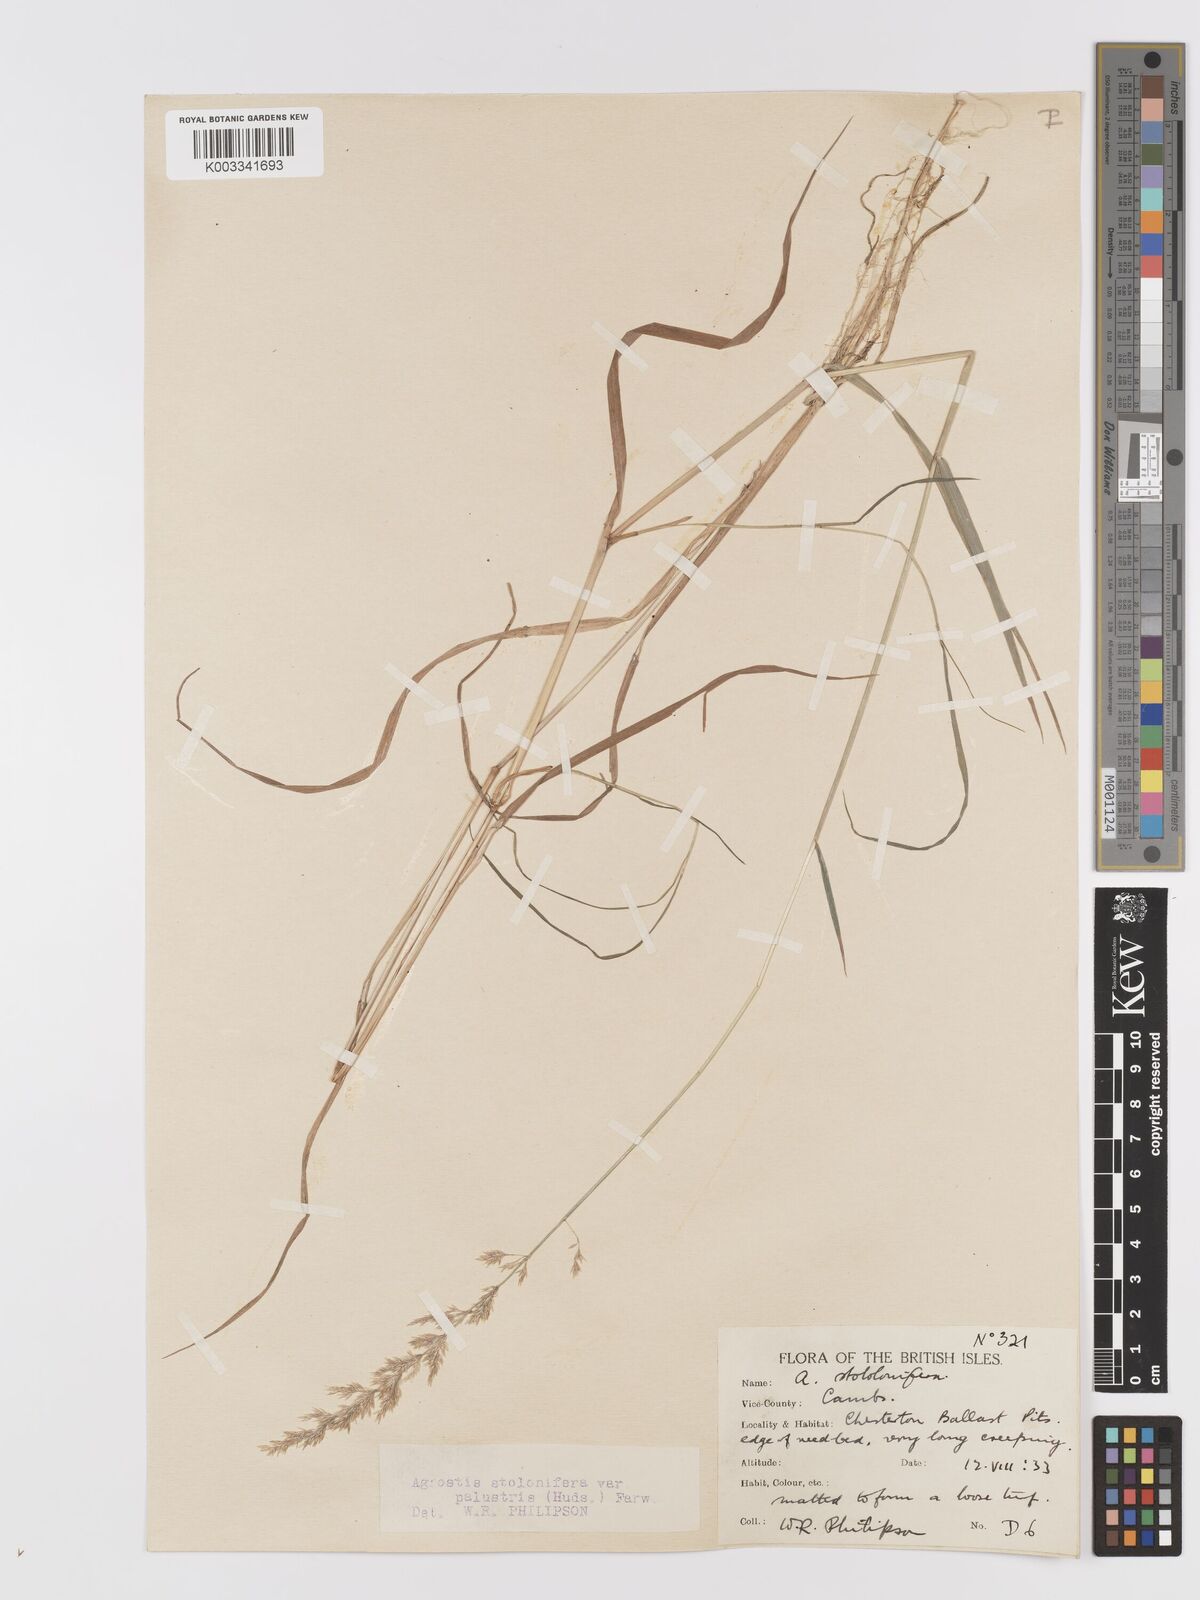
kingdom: Plantae
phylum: Tracheophyta
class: Liliopsida
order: Poales
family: Poaceae
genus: Agrostis
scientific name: Agrostis stolonifera
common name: Creeping bentgrass
